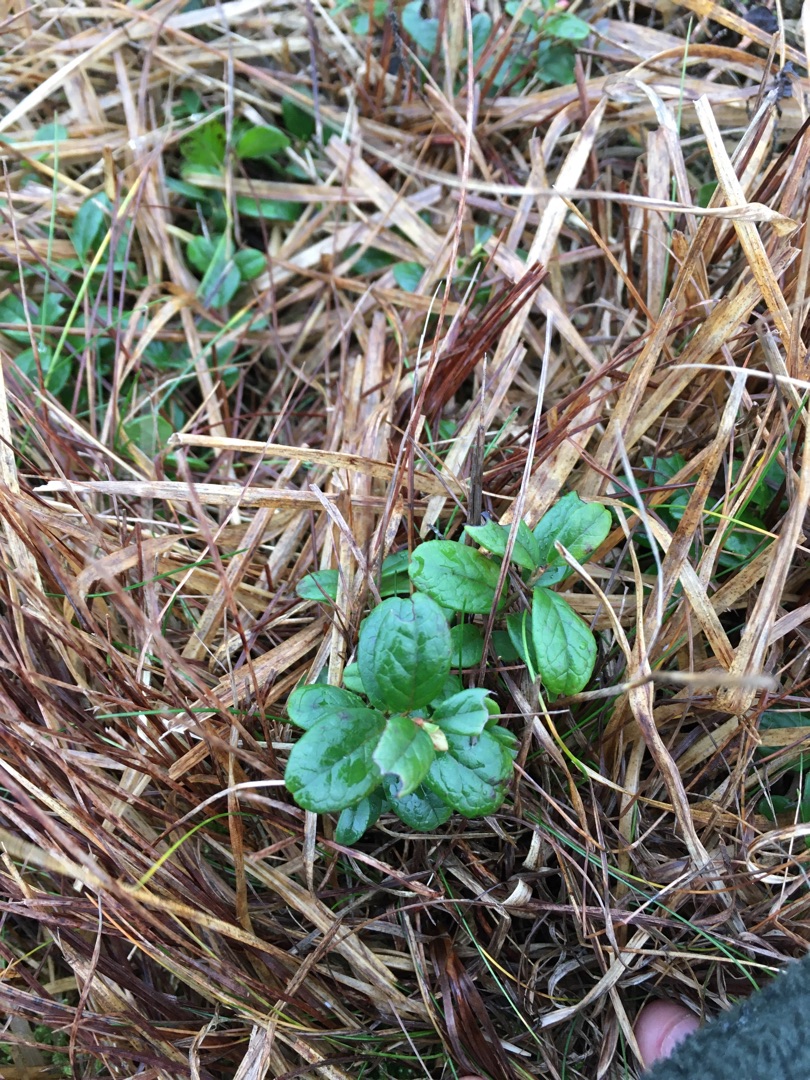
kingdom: Plantae
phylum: Tracheophyta
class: Magnoliopsida
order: Ericales
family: Ericaceae
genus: Vaccinium
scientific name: Vaccinium vitis-idaea
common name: Tyttebær
